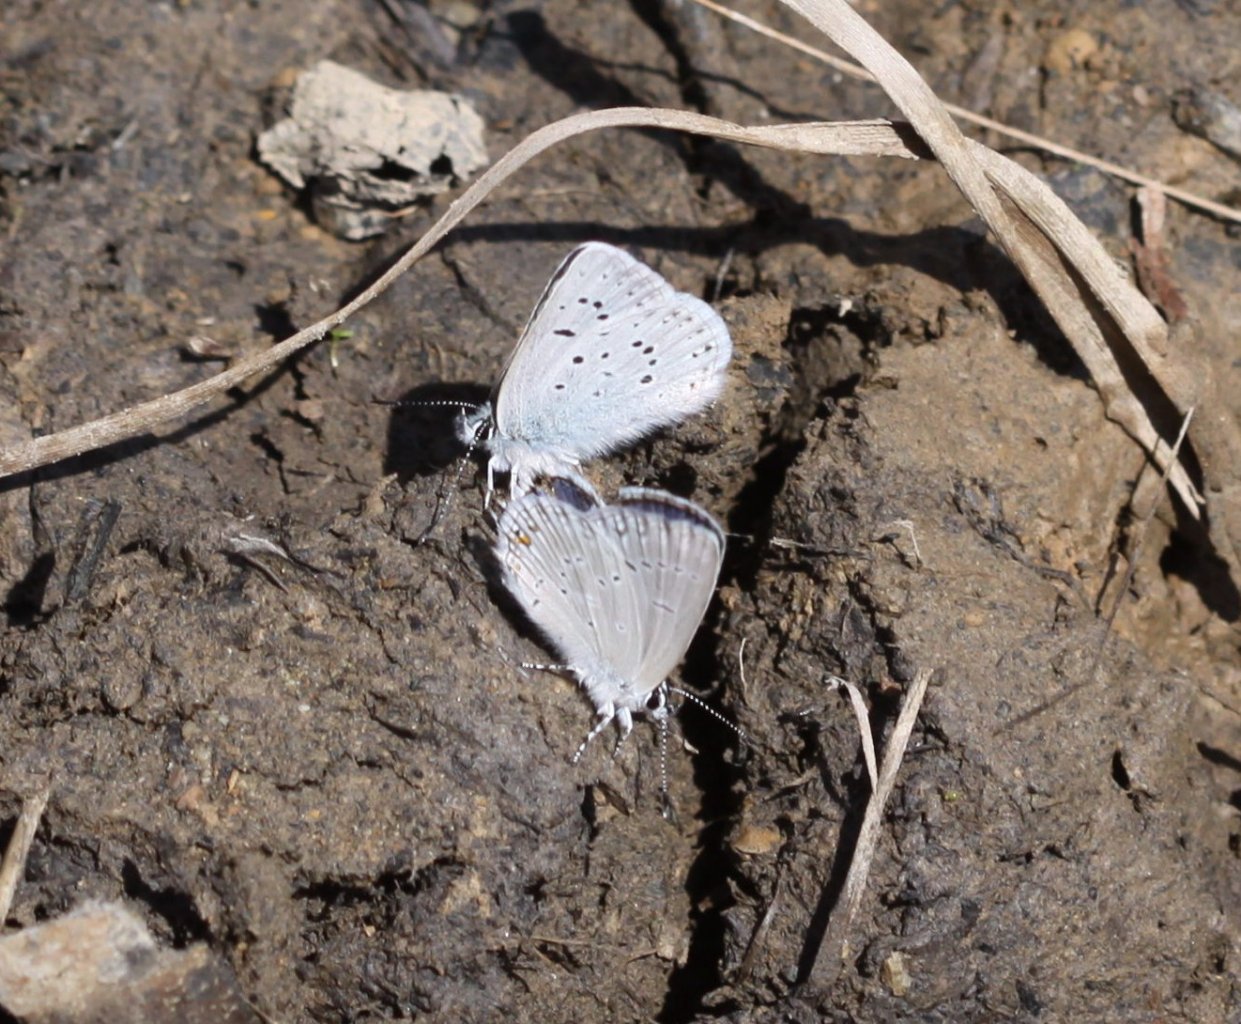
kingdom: Animalia
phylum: Arthropoda
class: Insecta
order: Lepidoptera
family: Lycaenidae
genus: Elkalyce
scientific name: Elkalyce amyntula
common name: Western Tailed-Blue
